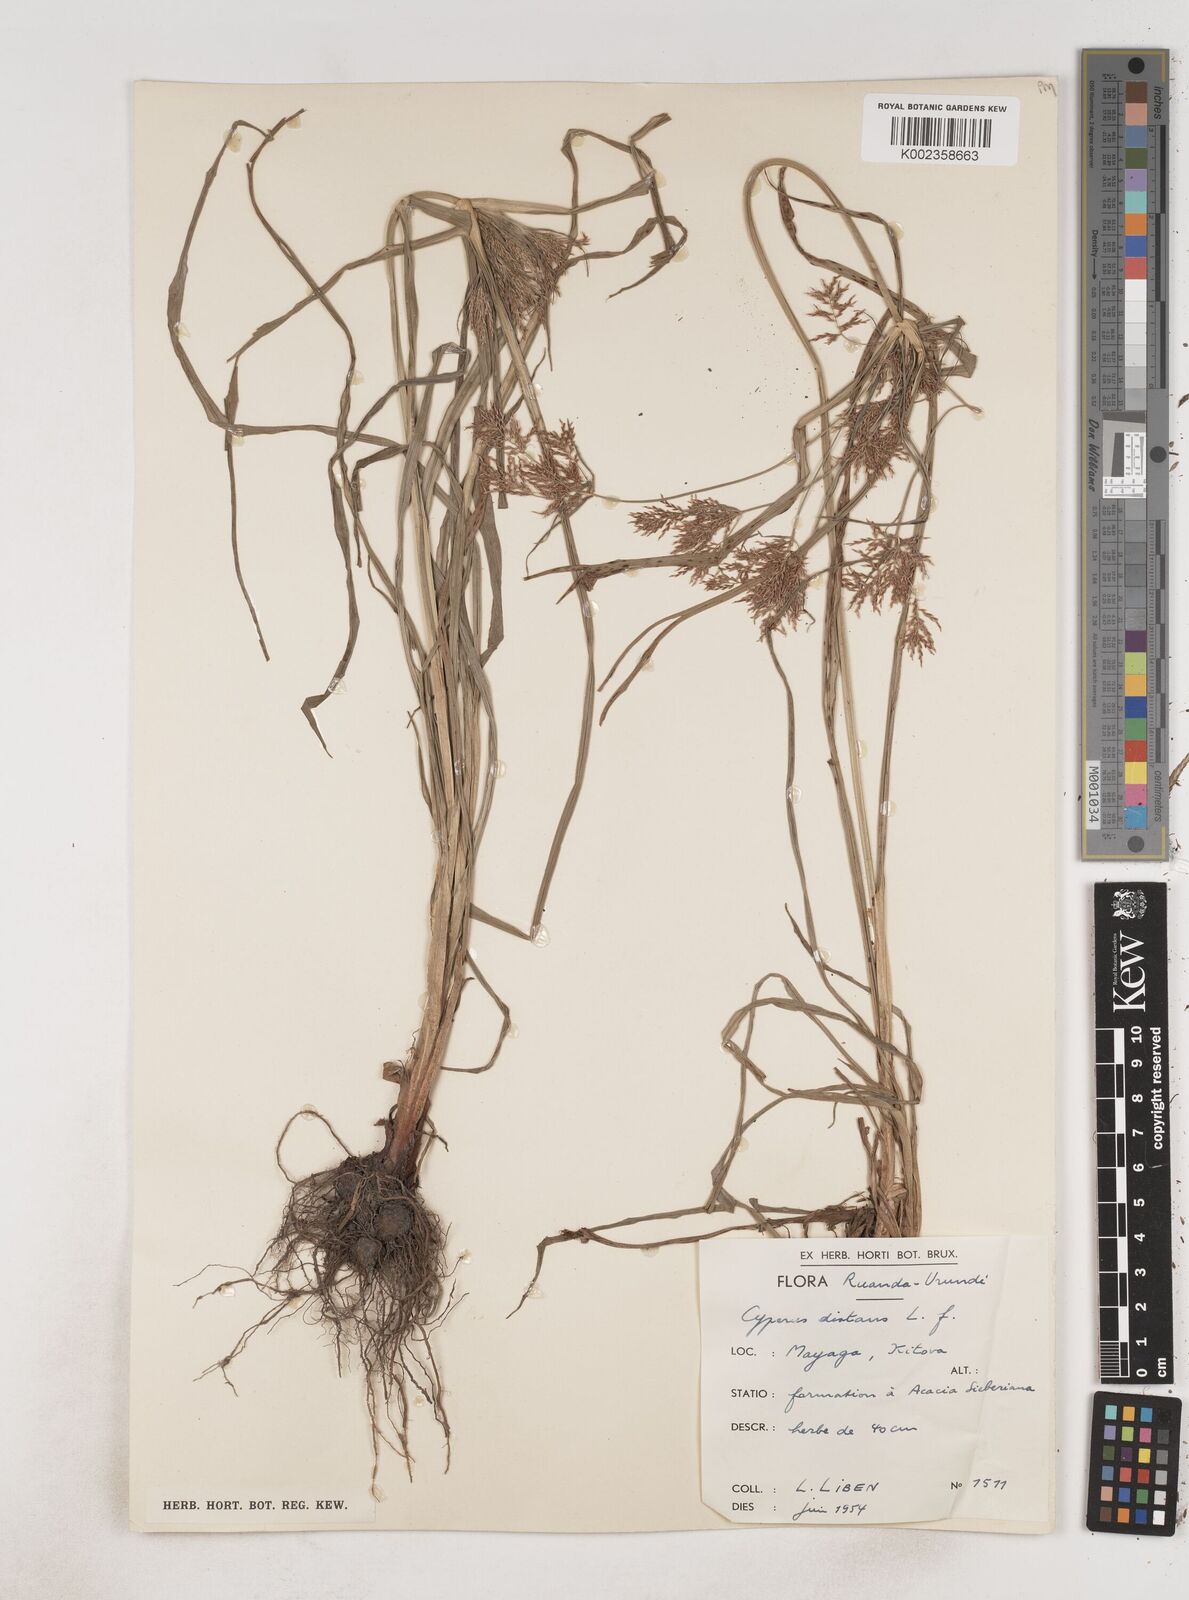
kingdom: Plantae
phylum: Tracheophyta
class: Liliopsida
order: Poales
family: Cyperaceae
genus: Cyperus
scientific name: Cyperus distans
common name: Slender cyperus
